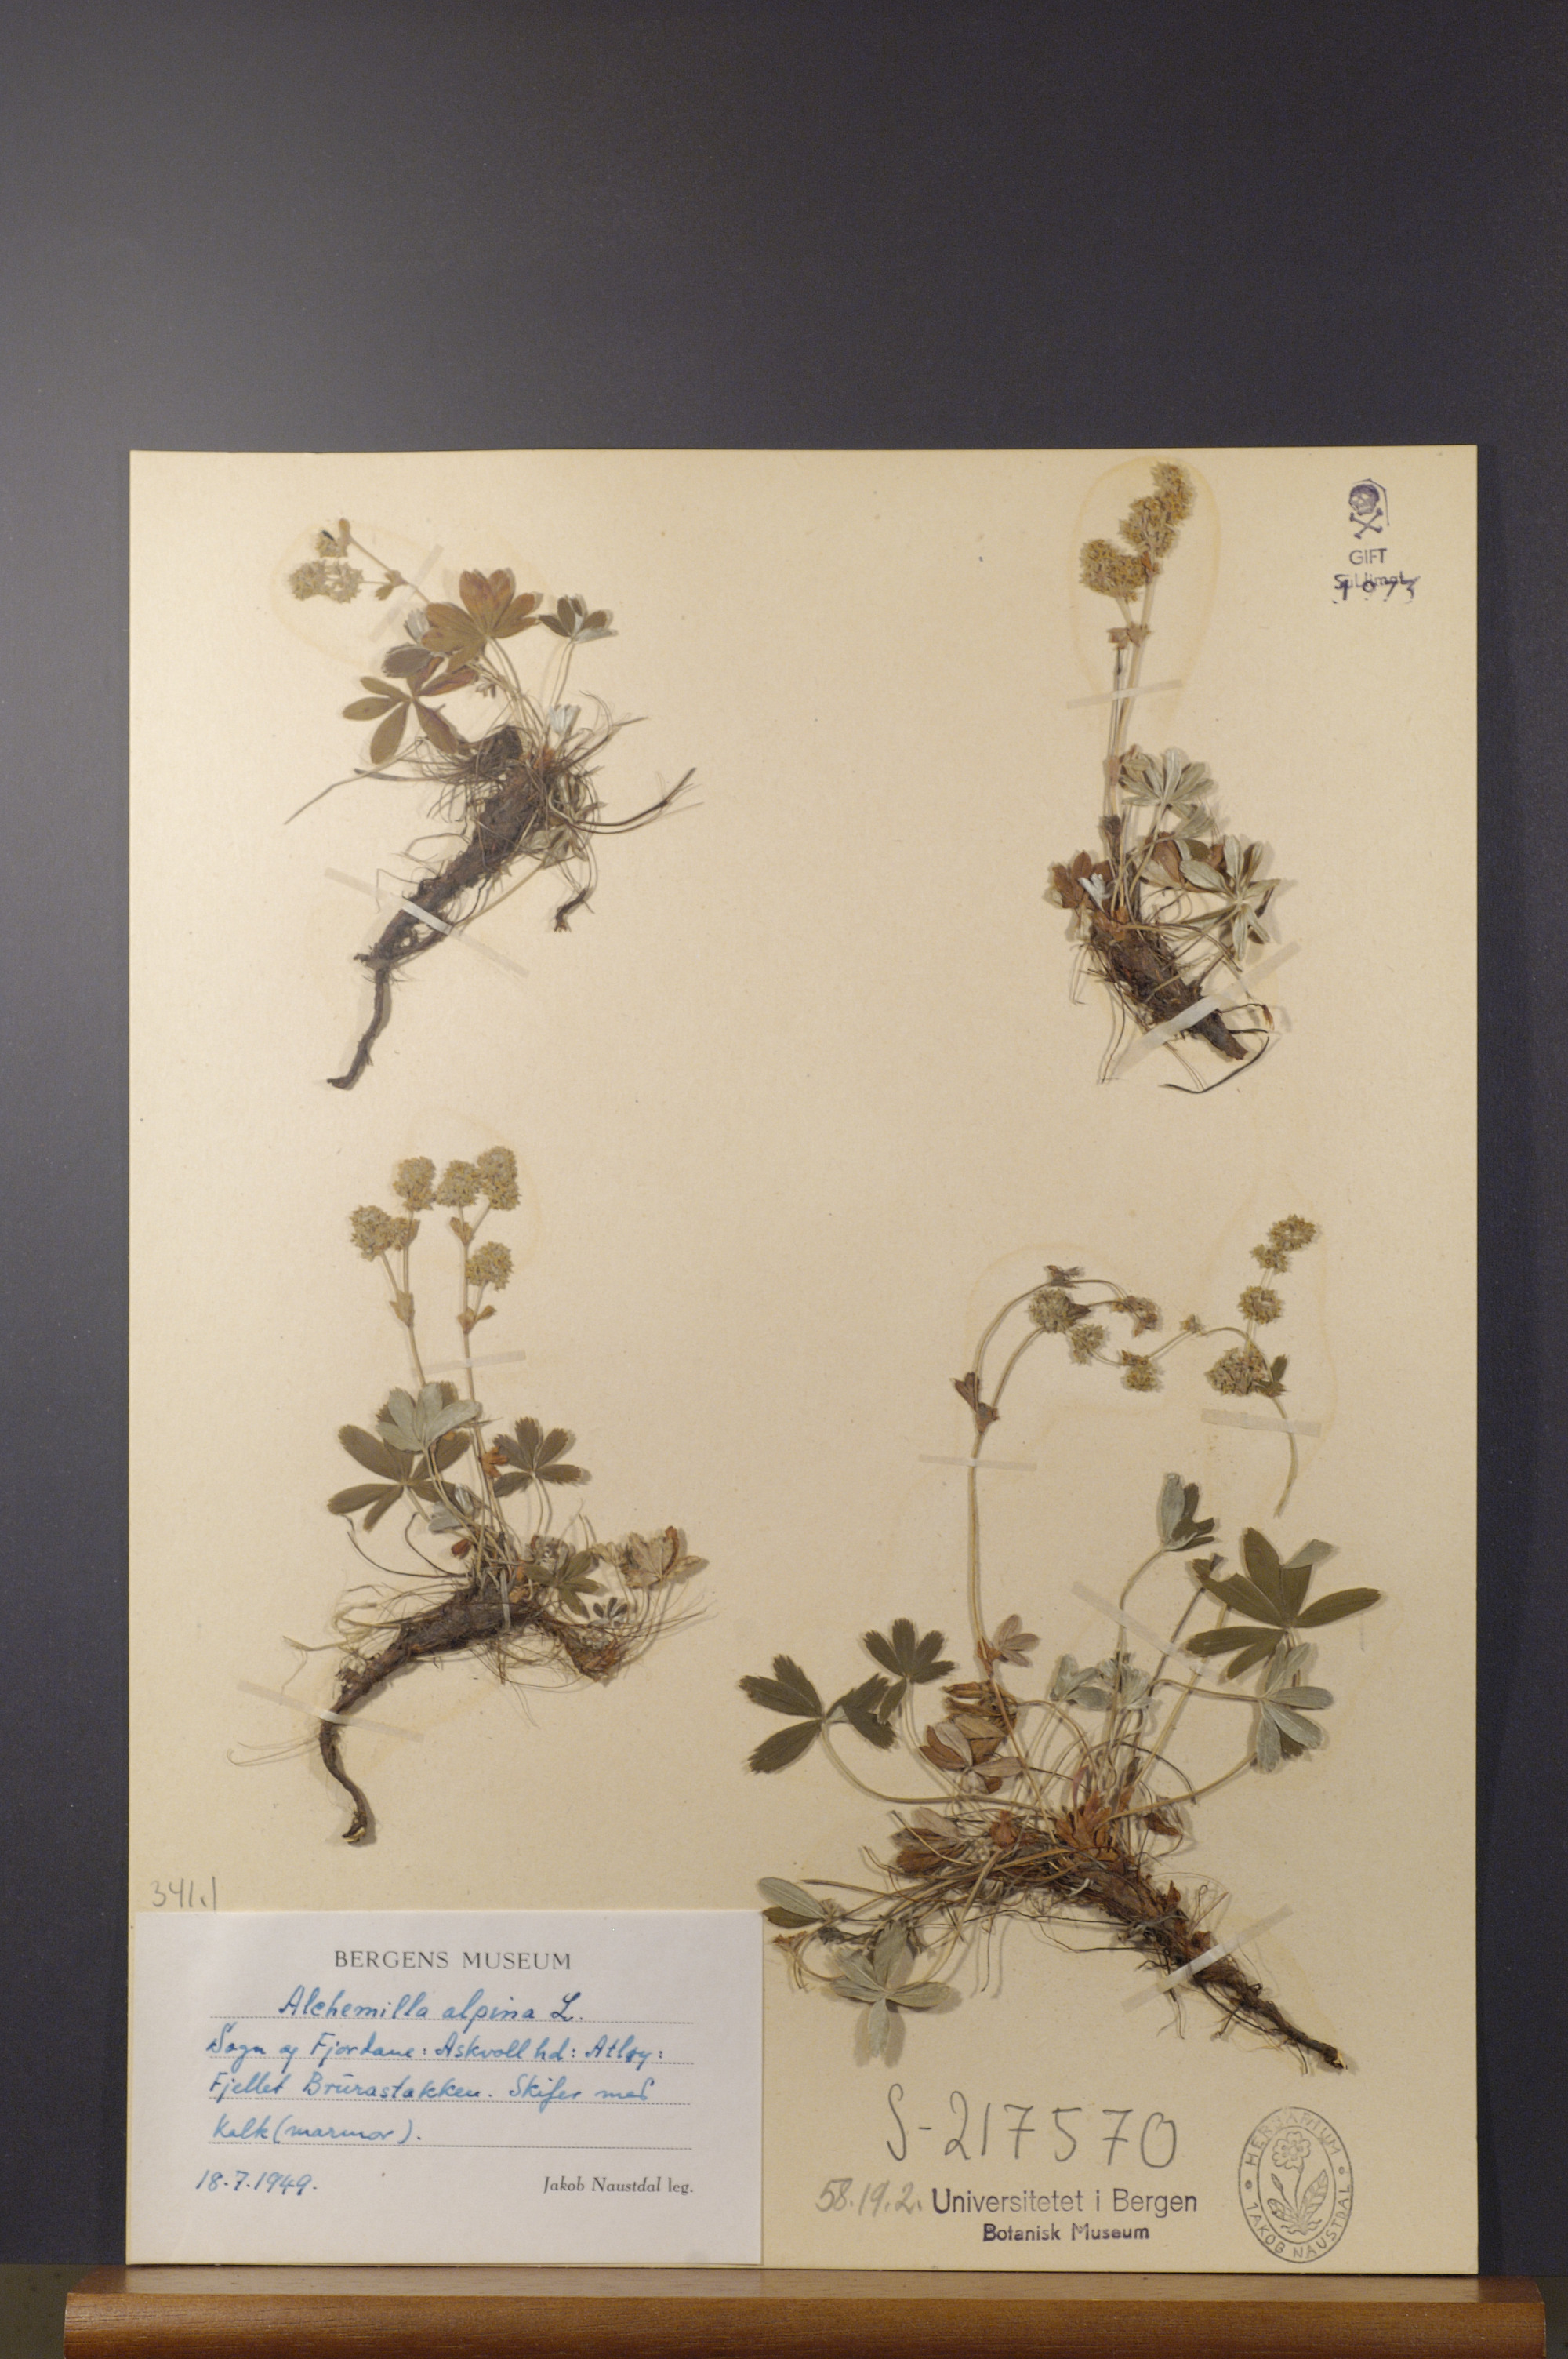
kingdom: Plantae
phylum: Tracheophyta
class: Magnoliopsida
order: Rosales
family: Rosaceae
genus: Alchemilla
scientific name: Alchemilla alpina
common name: Alpine lady's-mantle
